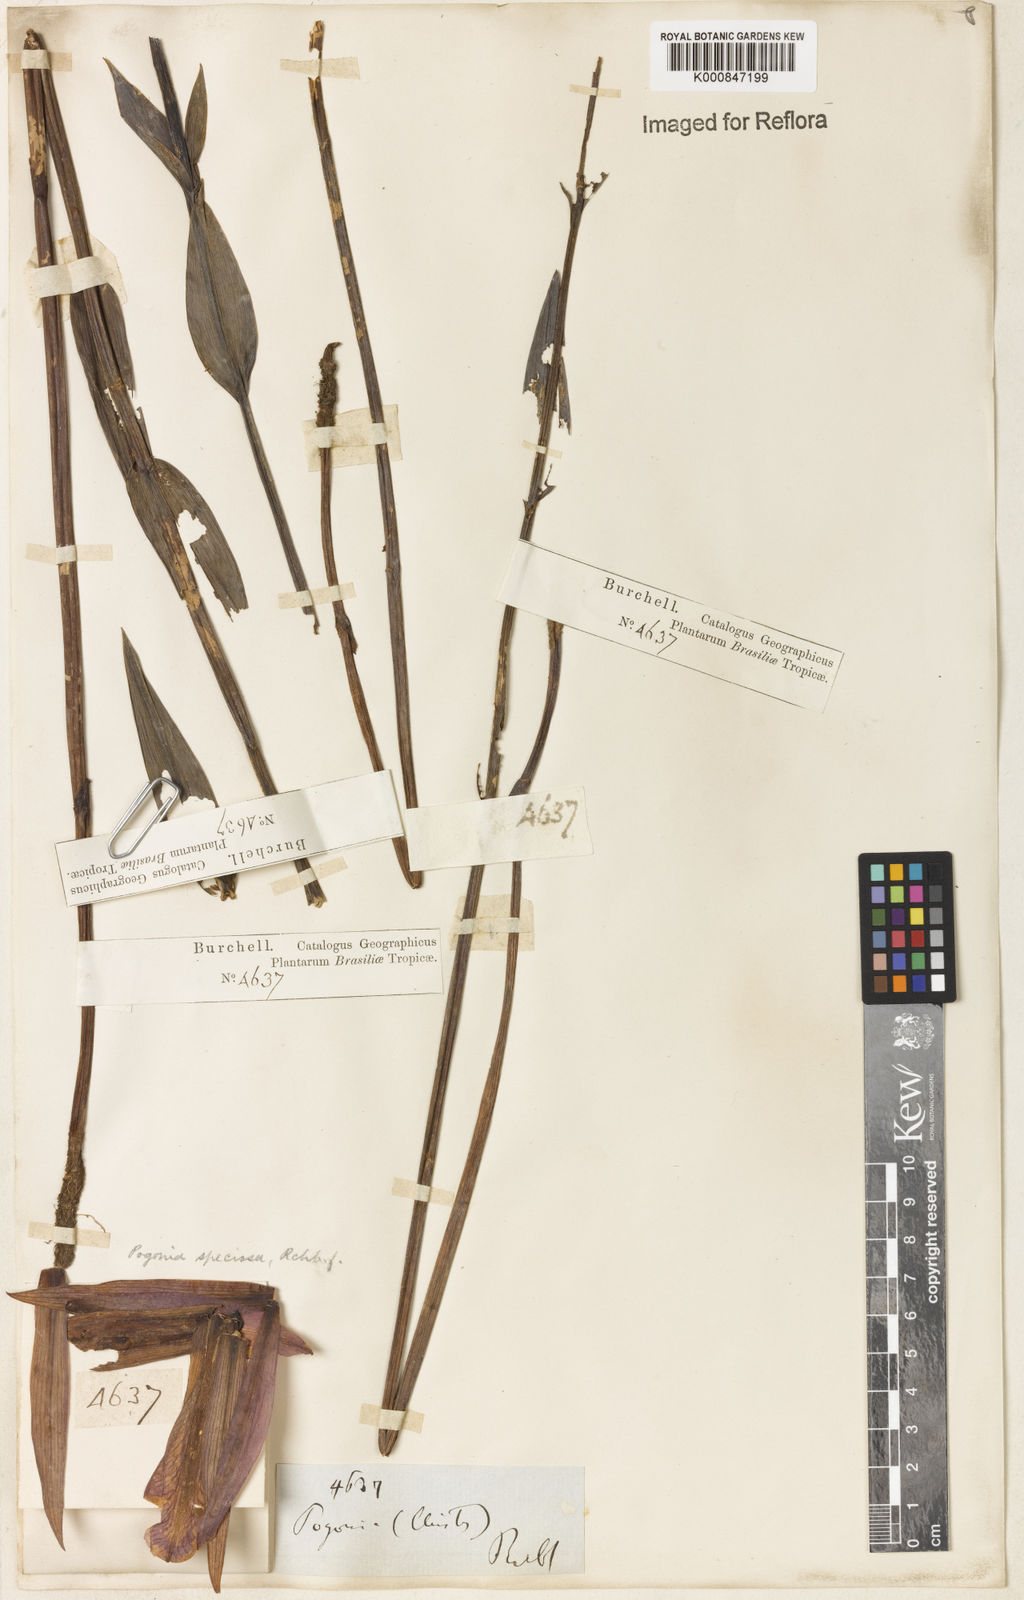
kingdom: Plantae
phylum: Tracheophyta
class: Liliopsida
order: Asparagales
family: Orchidaceae
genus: Cleistes
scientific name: Cleistes speciosa
